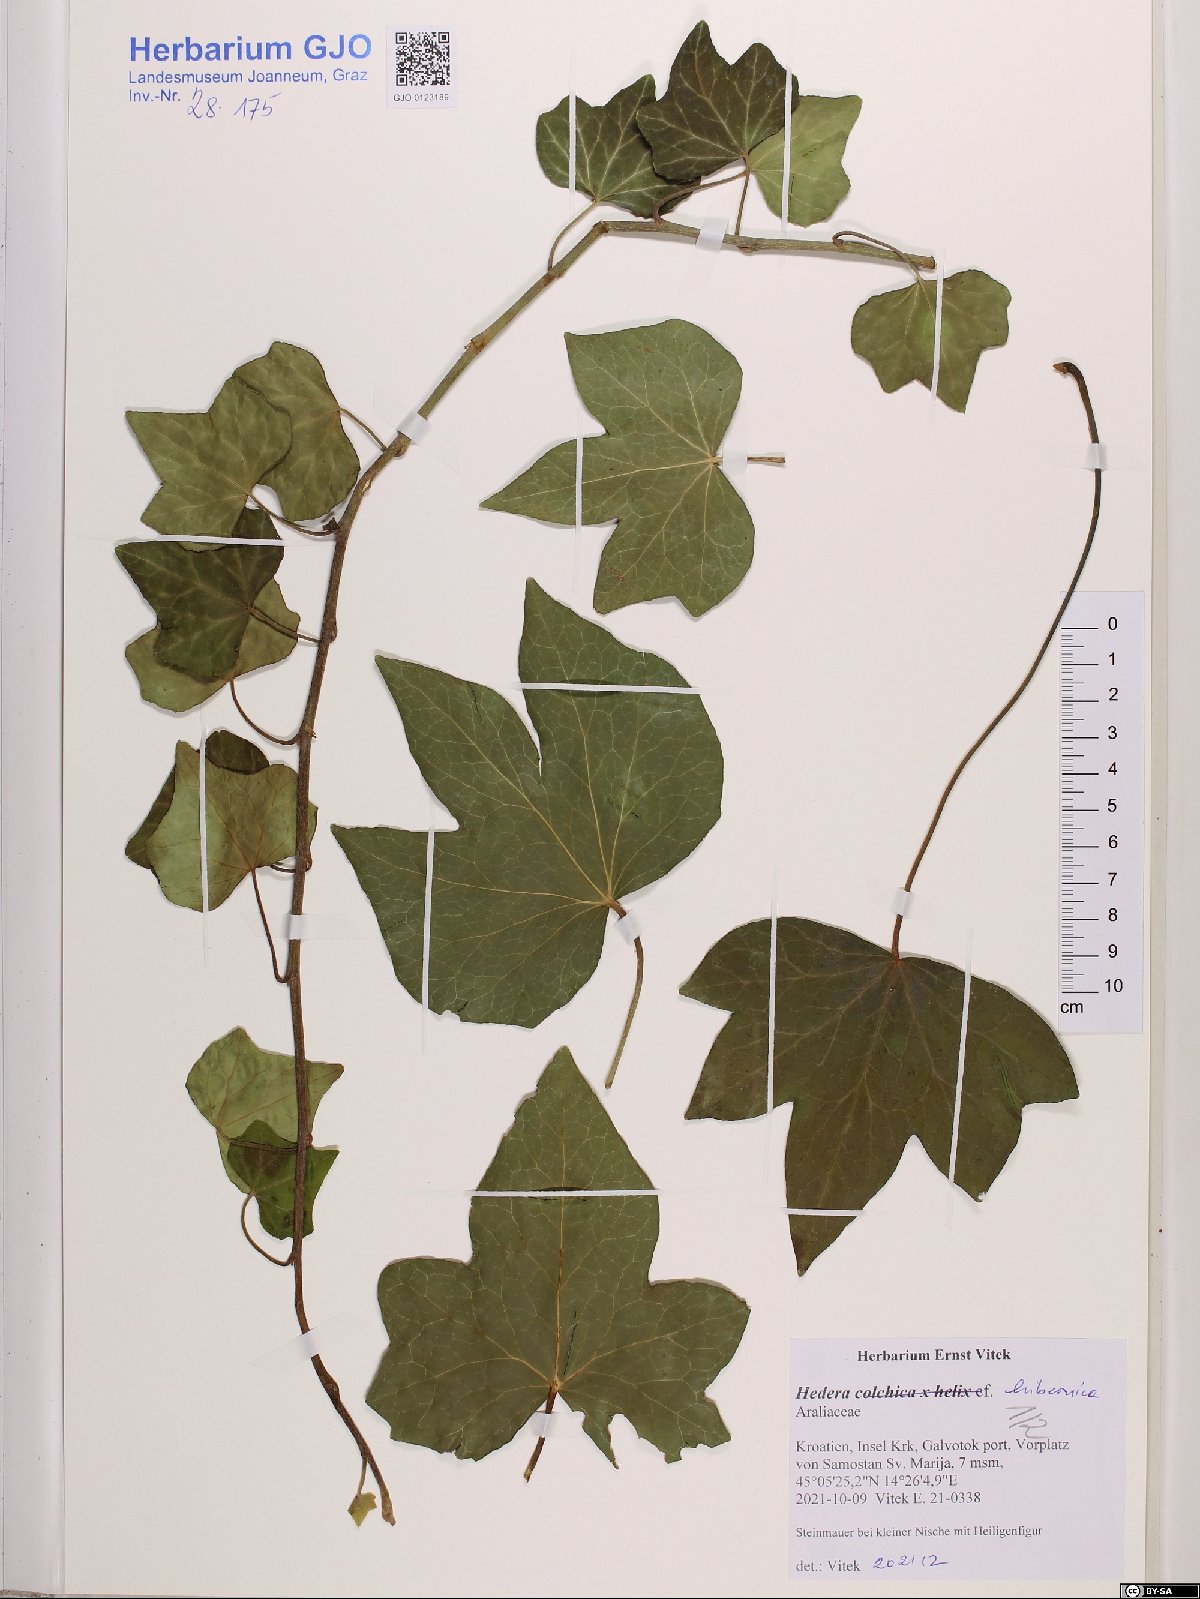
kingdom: Plantae
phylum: Tracheophyta
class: Magnoliopsida
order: Apiales
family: Araliaceae
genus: Hedera
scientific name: Hedera hibernica
